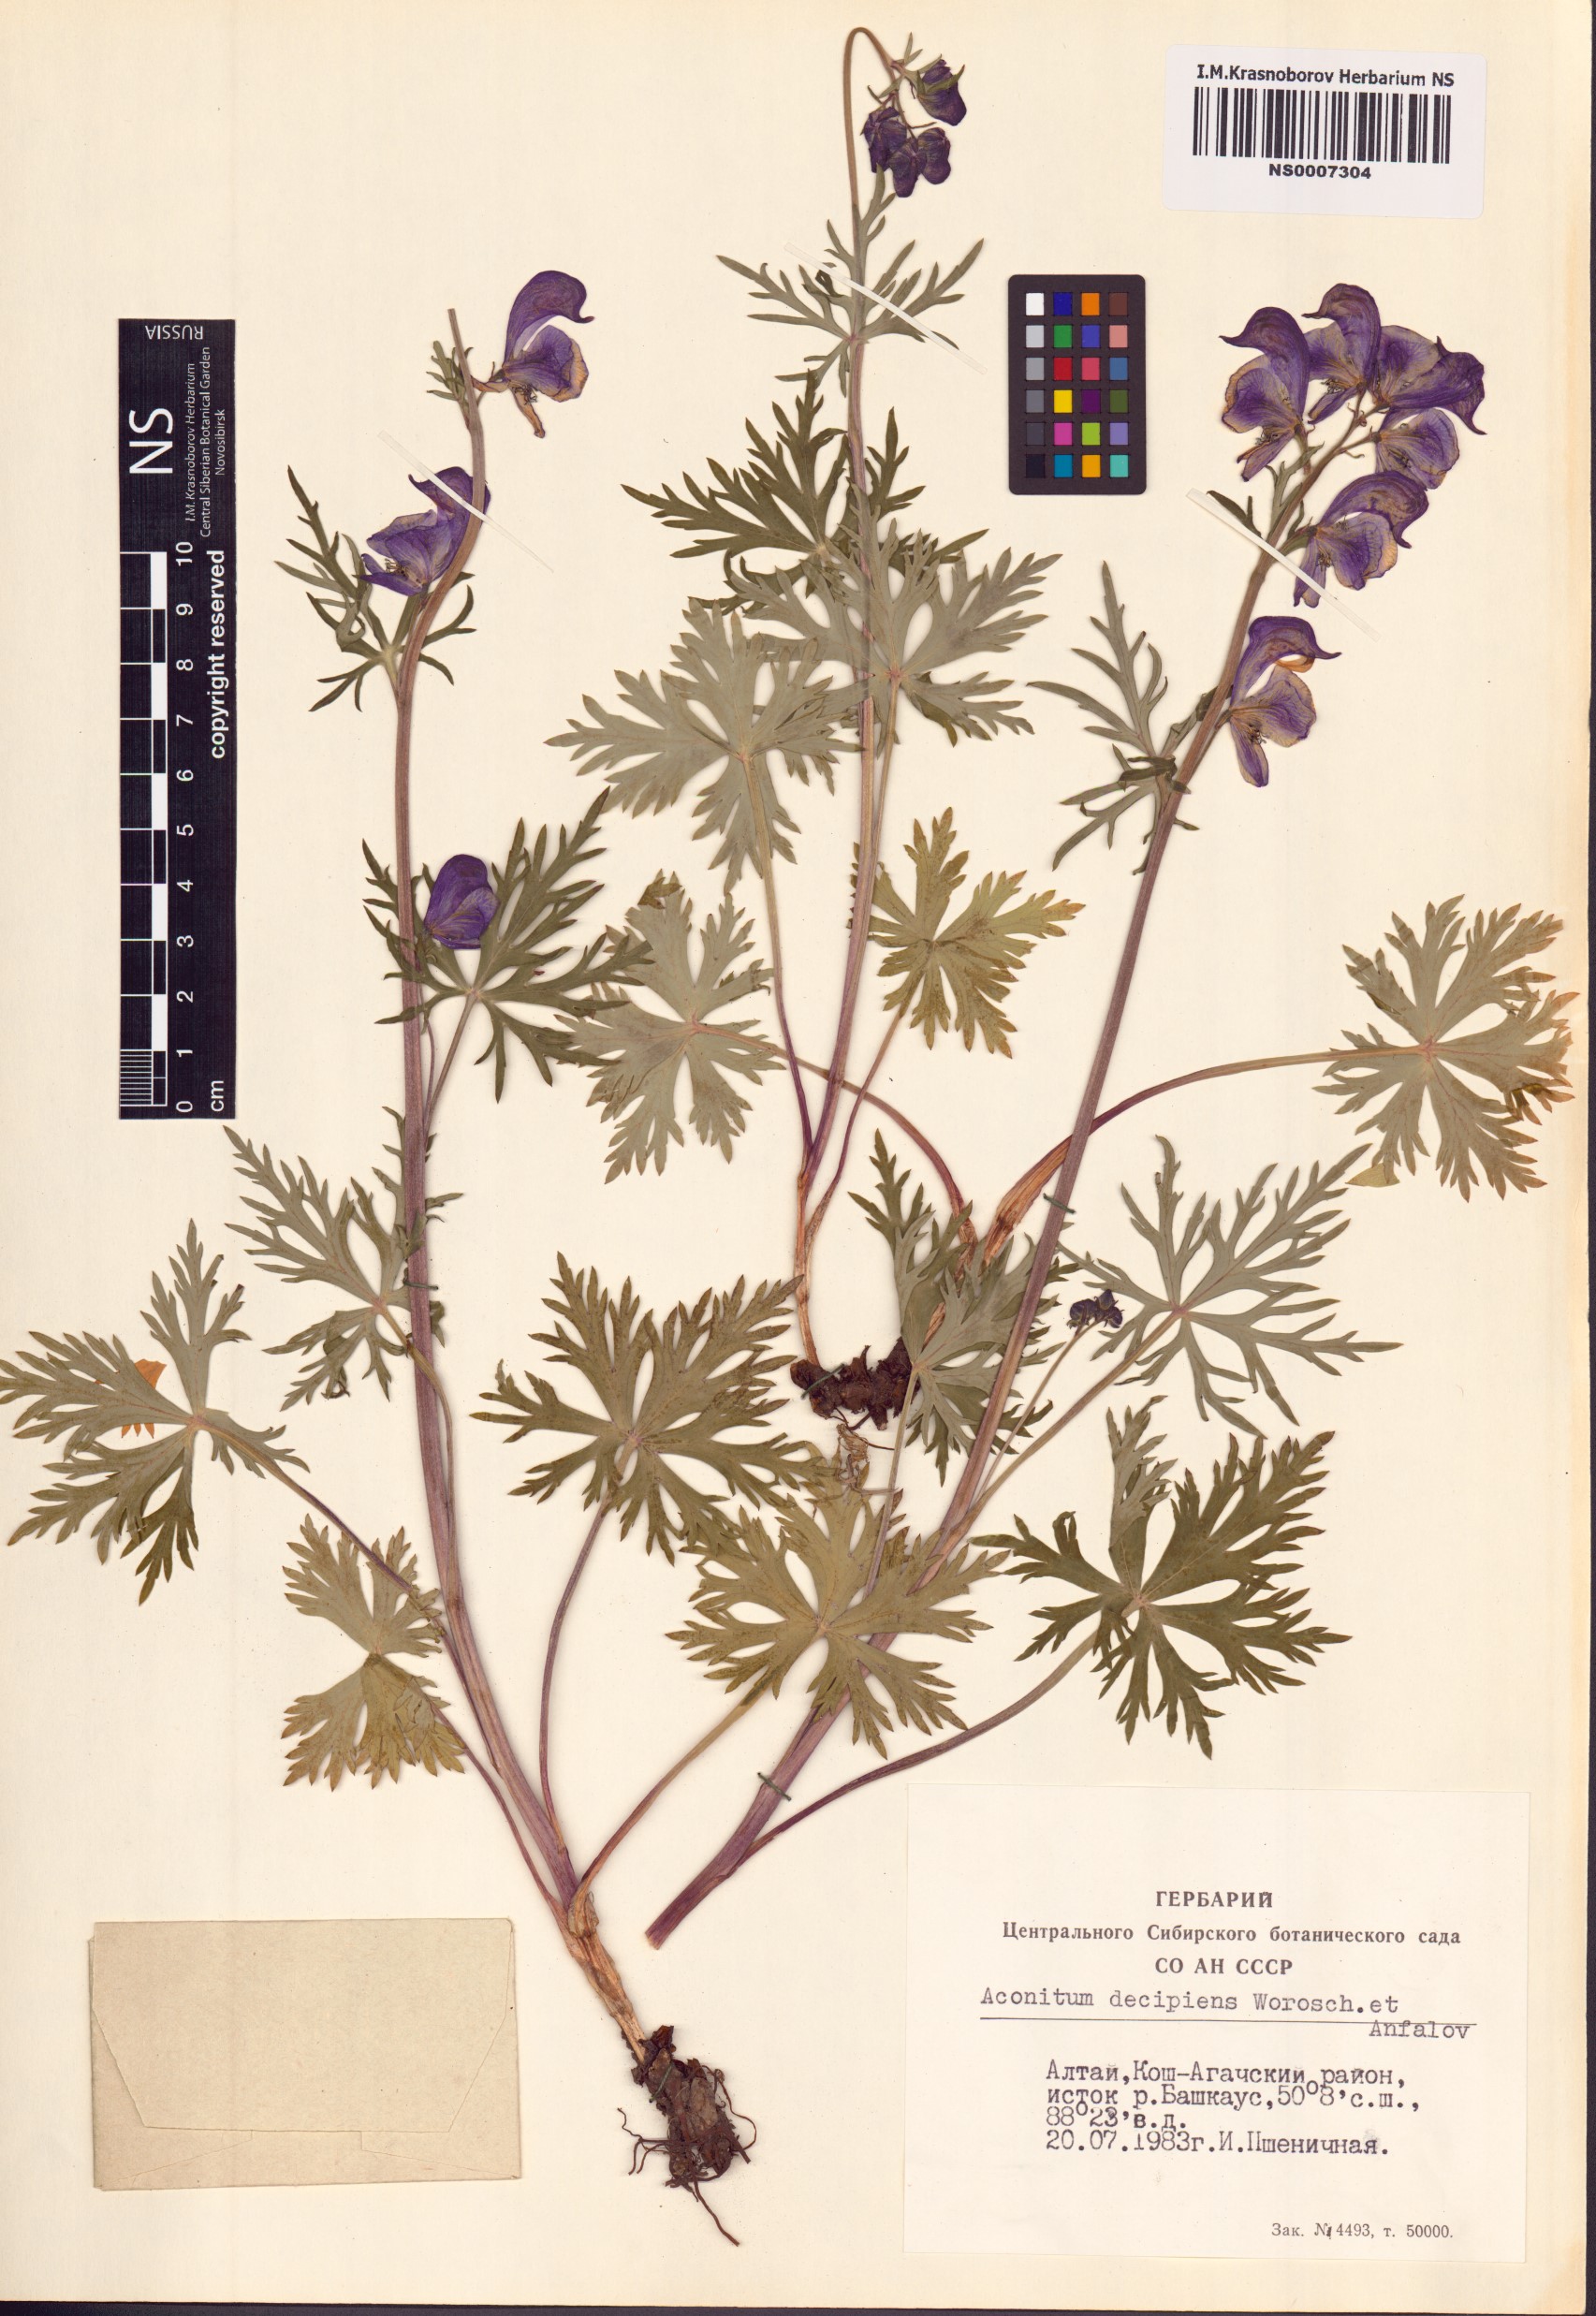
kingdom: Plantae
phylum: Tracheophyta
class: Magnoliopsida
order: Ranunculales
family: Ranunculaceae
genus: Aconitum
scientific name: Aconitum decipiens
